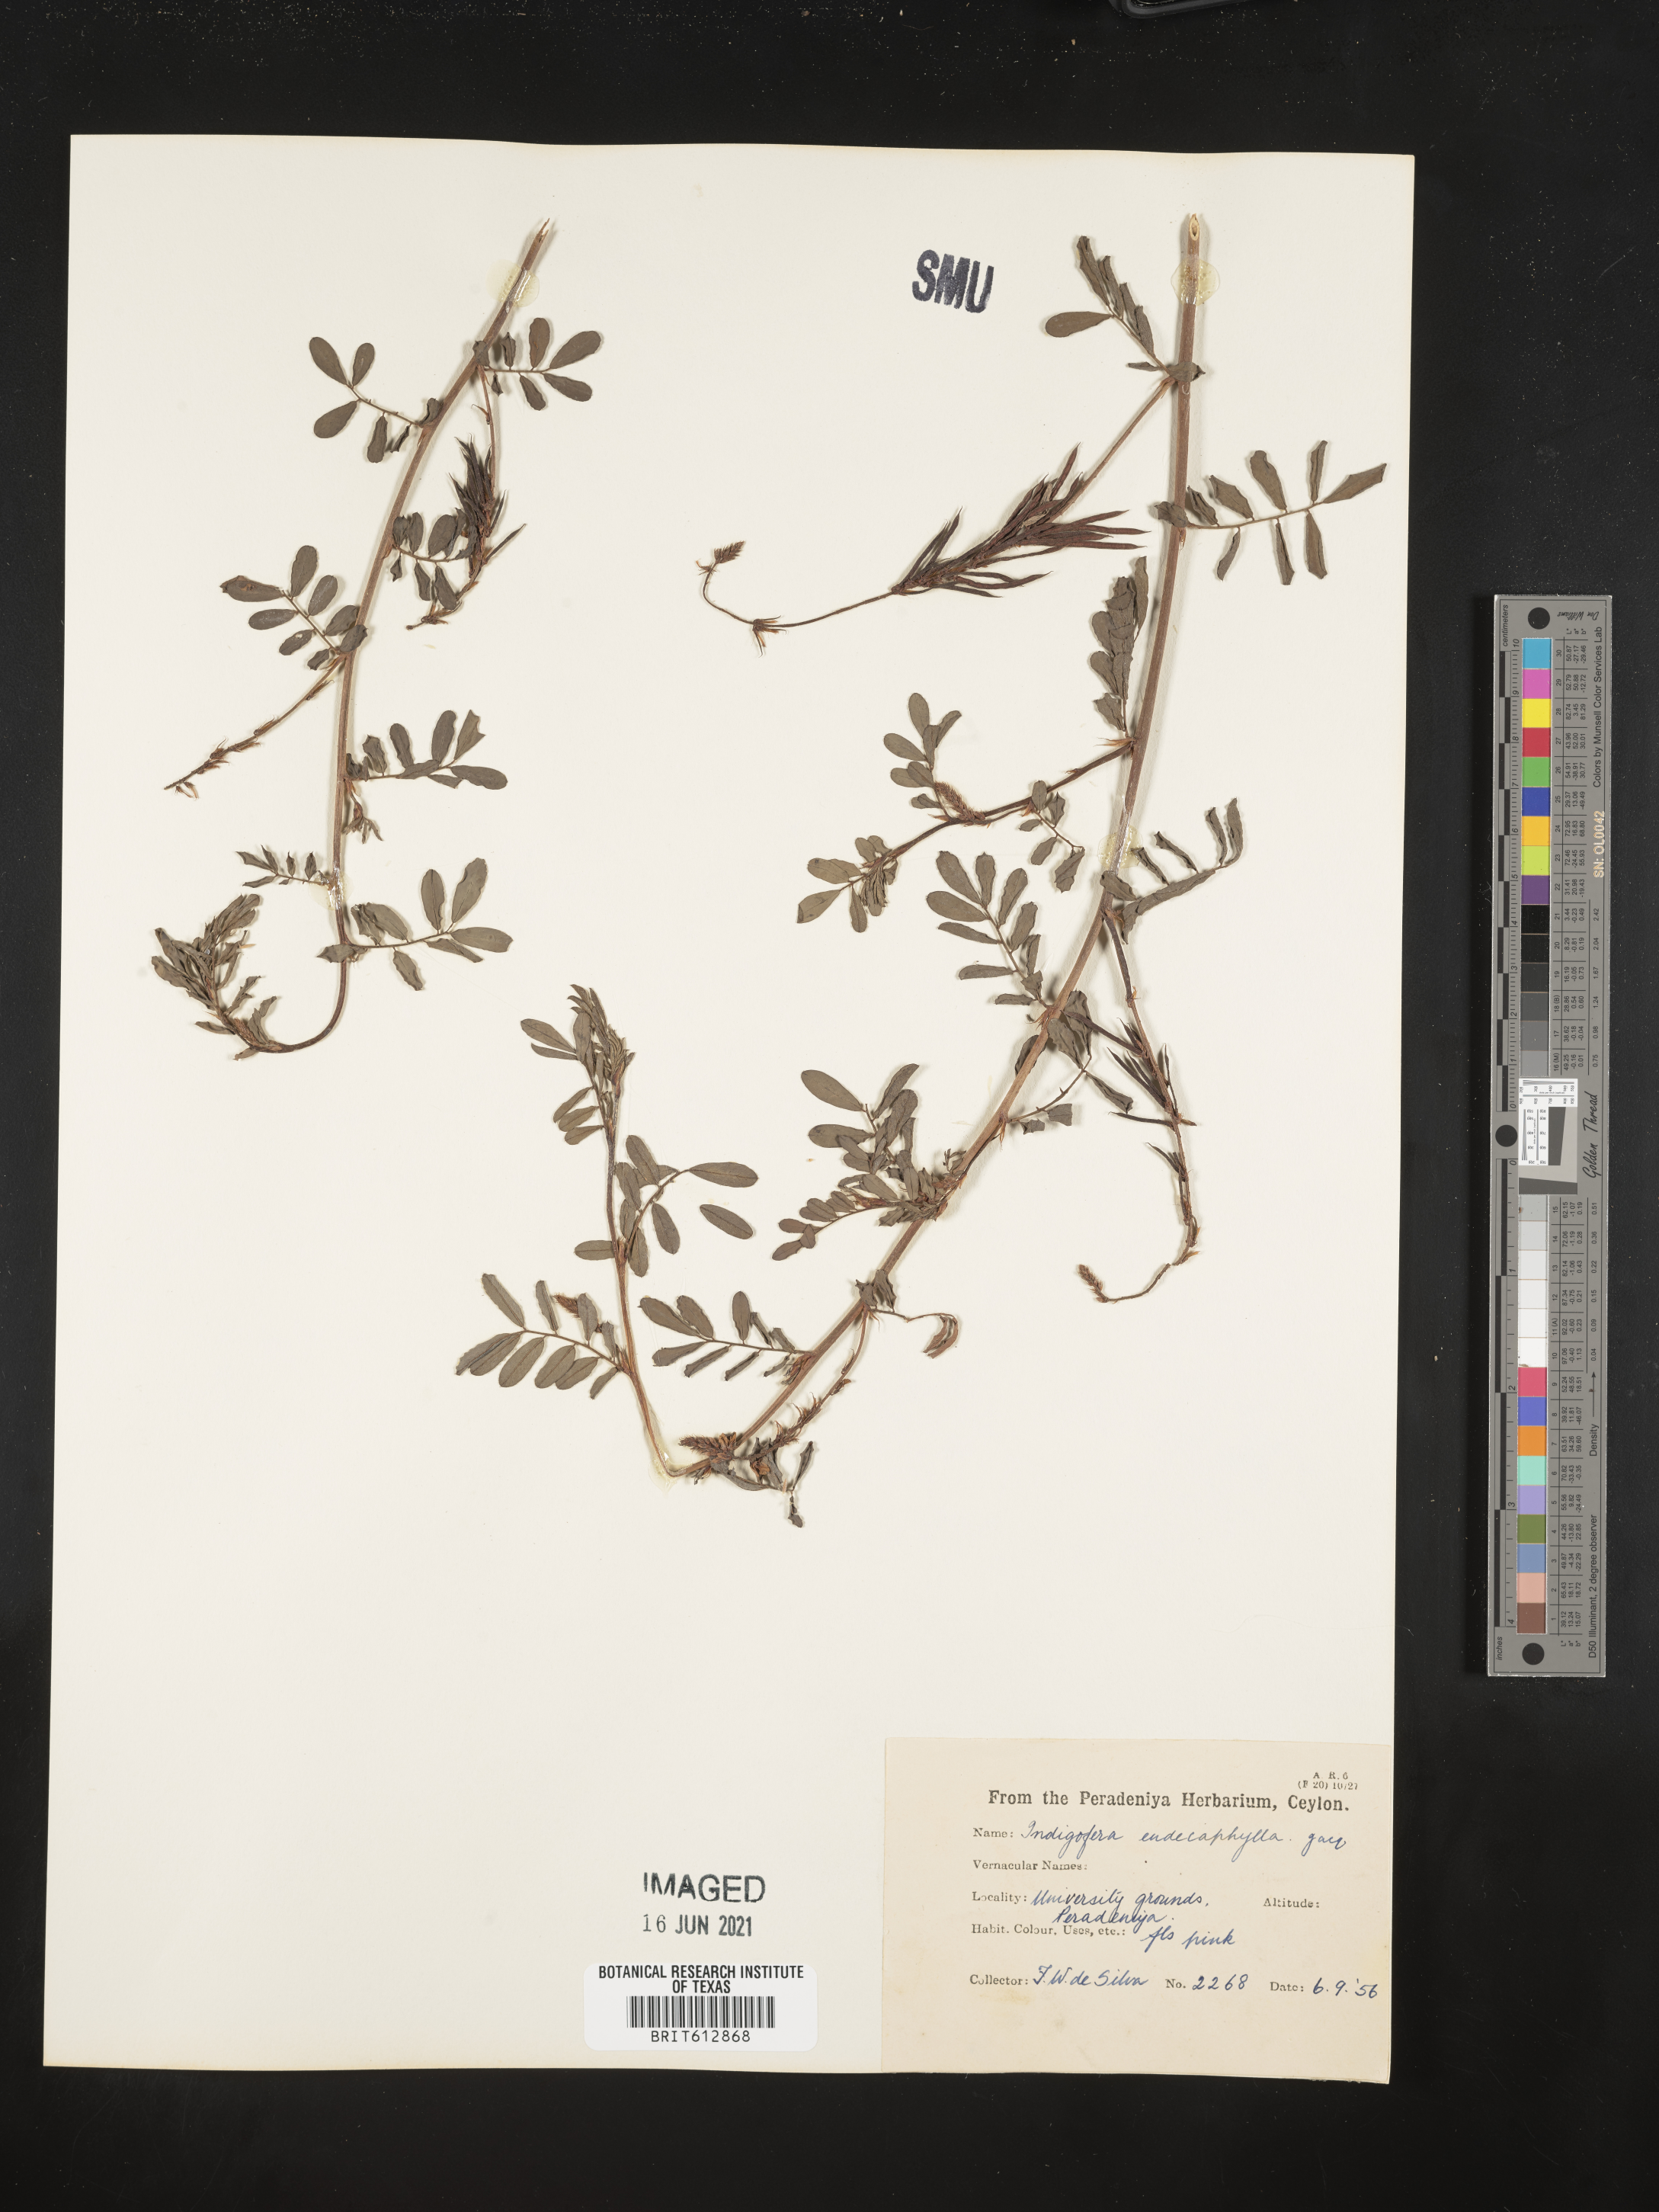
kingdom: Plantae
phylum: Tracheophyta
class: Magnoliopsida
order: Fabales
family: Fabaceae
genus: Indigofera
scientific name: Indigofera hendecaphylla
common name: Trailing indigo
